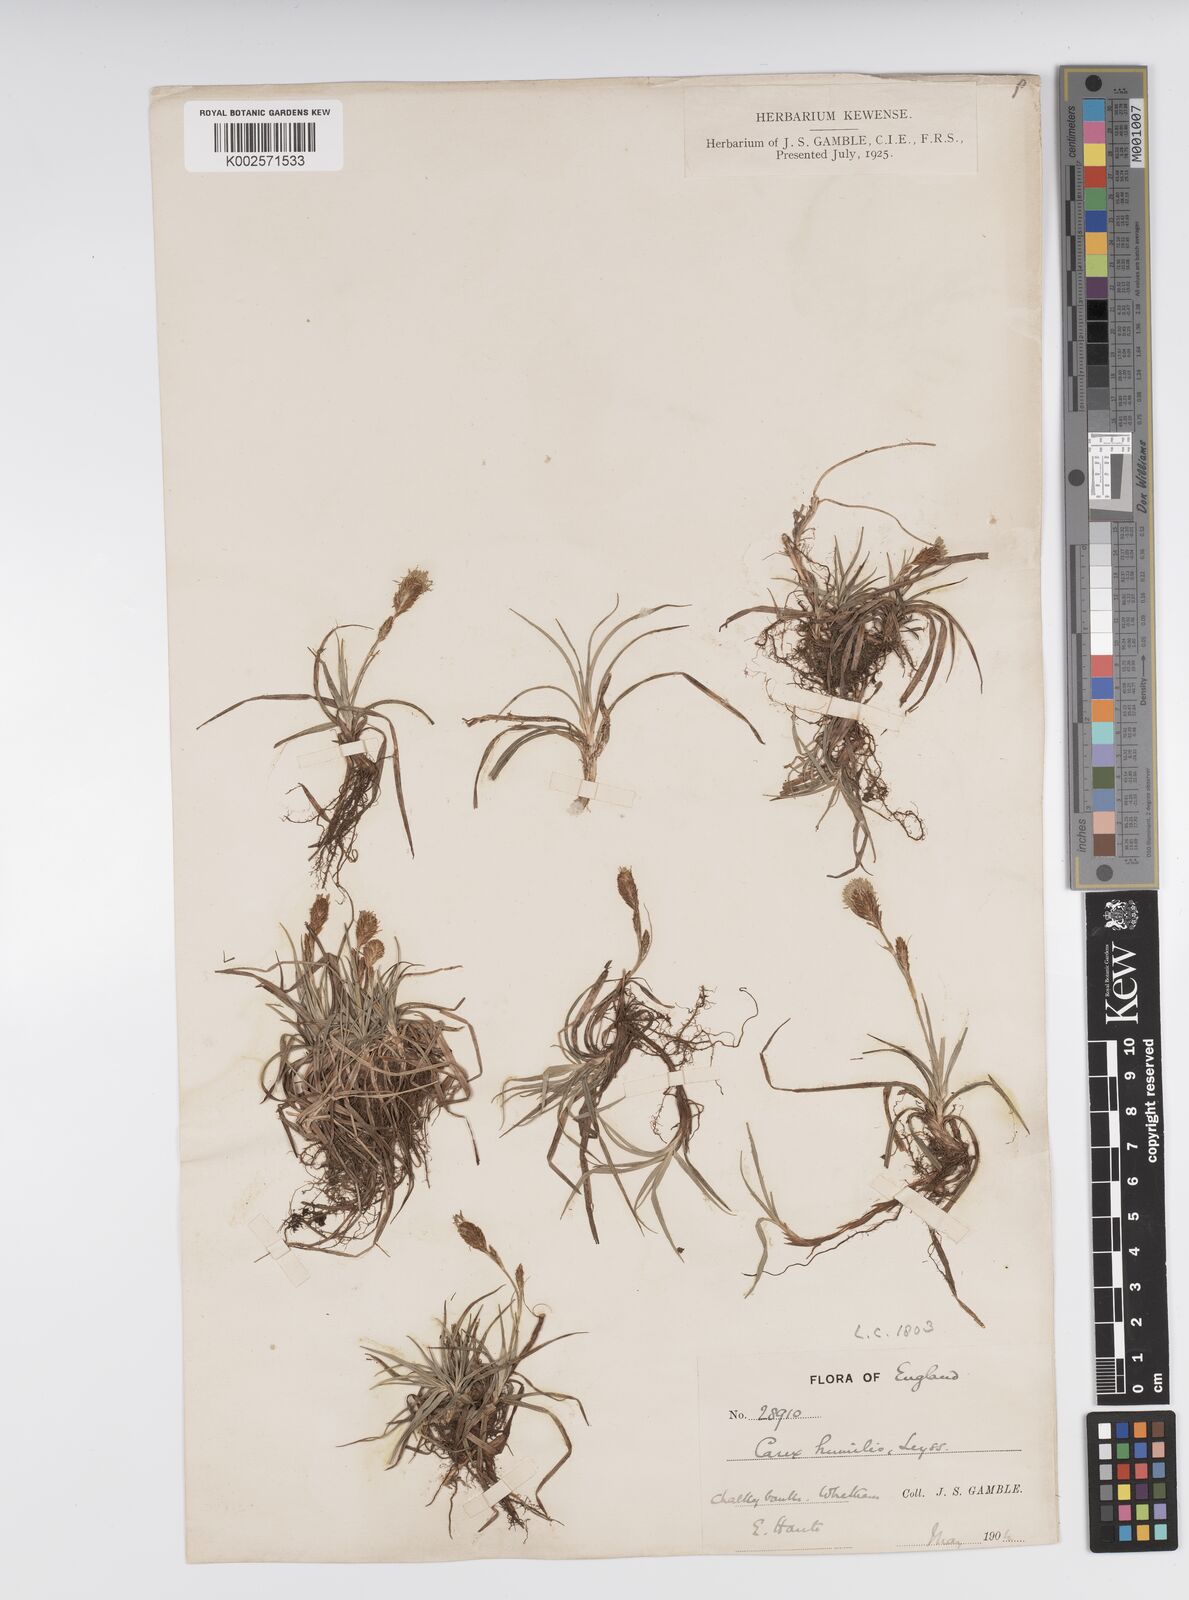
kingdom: Plantae
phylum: Tracheophyta
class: Liliopsida
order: Poales
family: Cyperaceae
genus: Carex
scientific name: Carex caryophyllea
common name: Spring sedge
